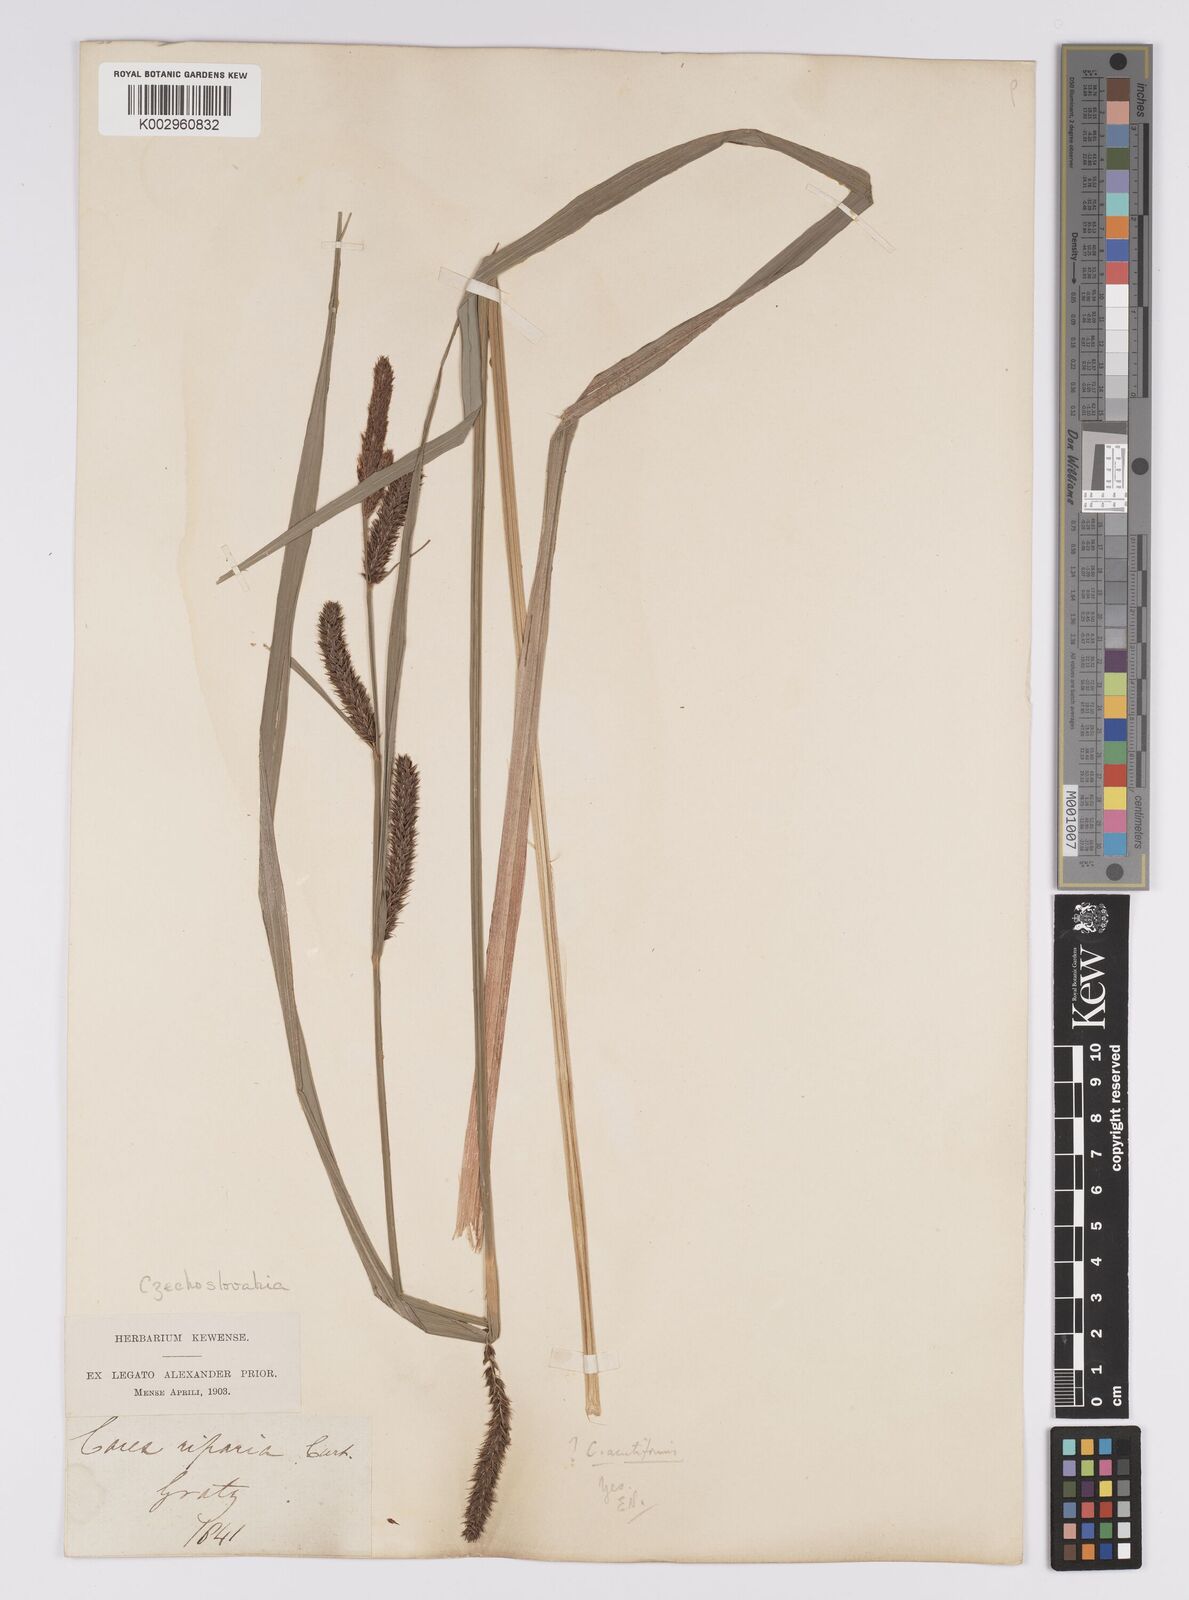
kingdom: Plantae
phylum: Tracheophyta
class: Liliopsida
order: Poales
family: Cyperaceae
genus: Carex
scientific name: Carex acutiformis
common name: Lesser pond-sedge
